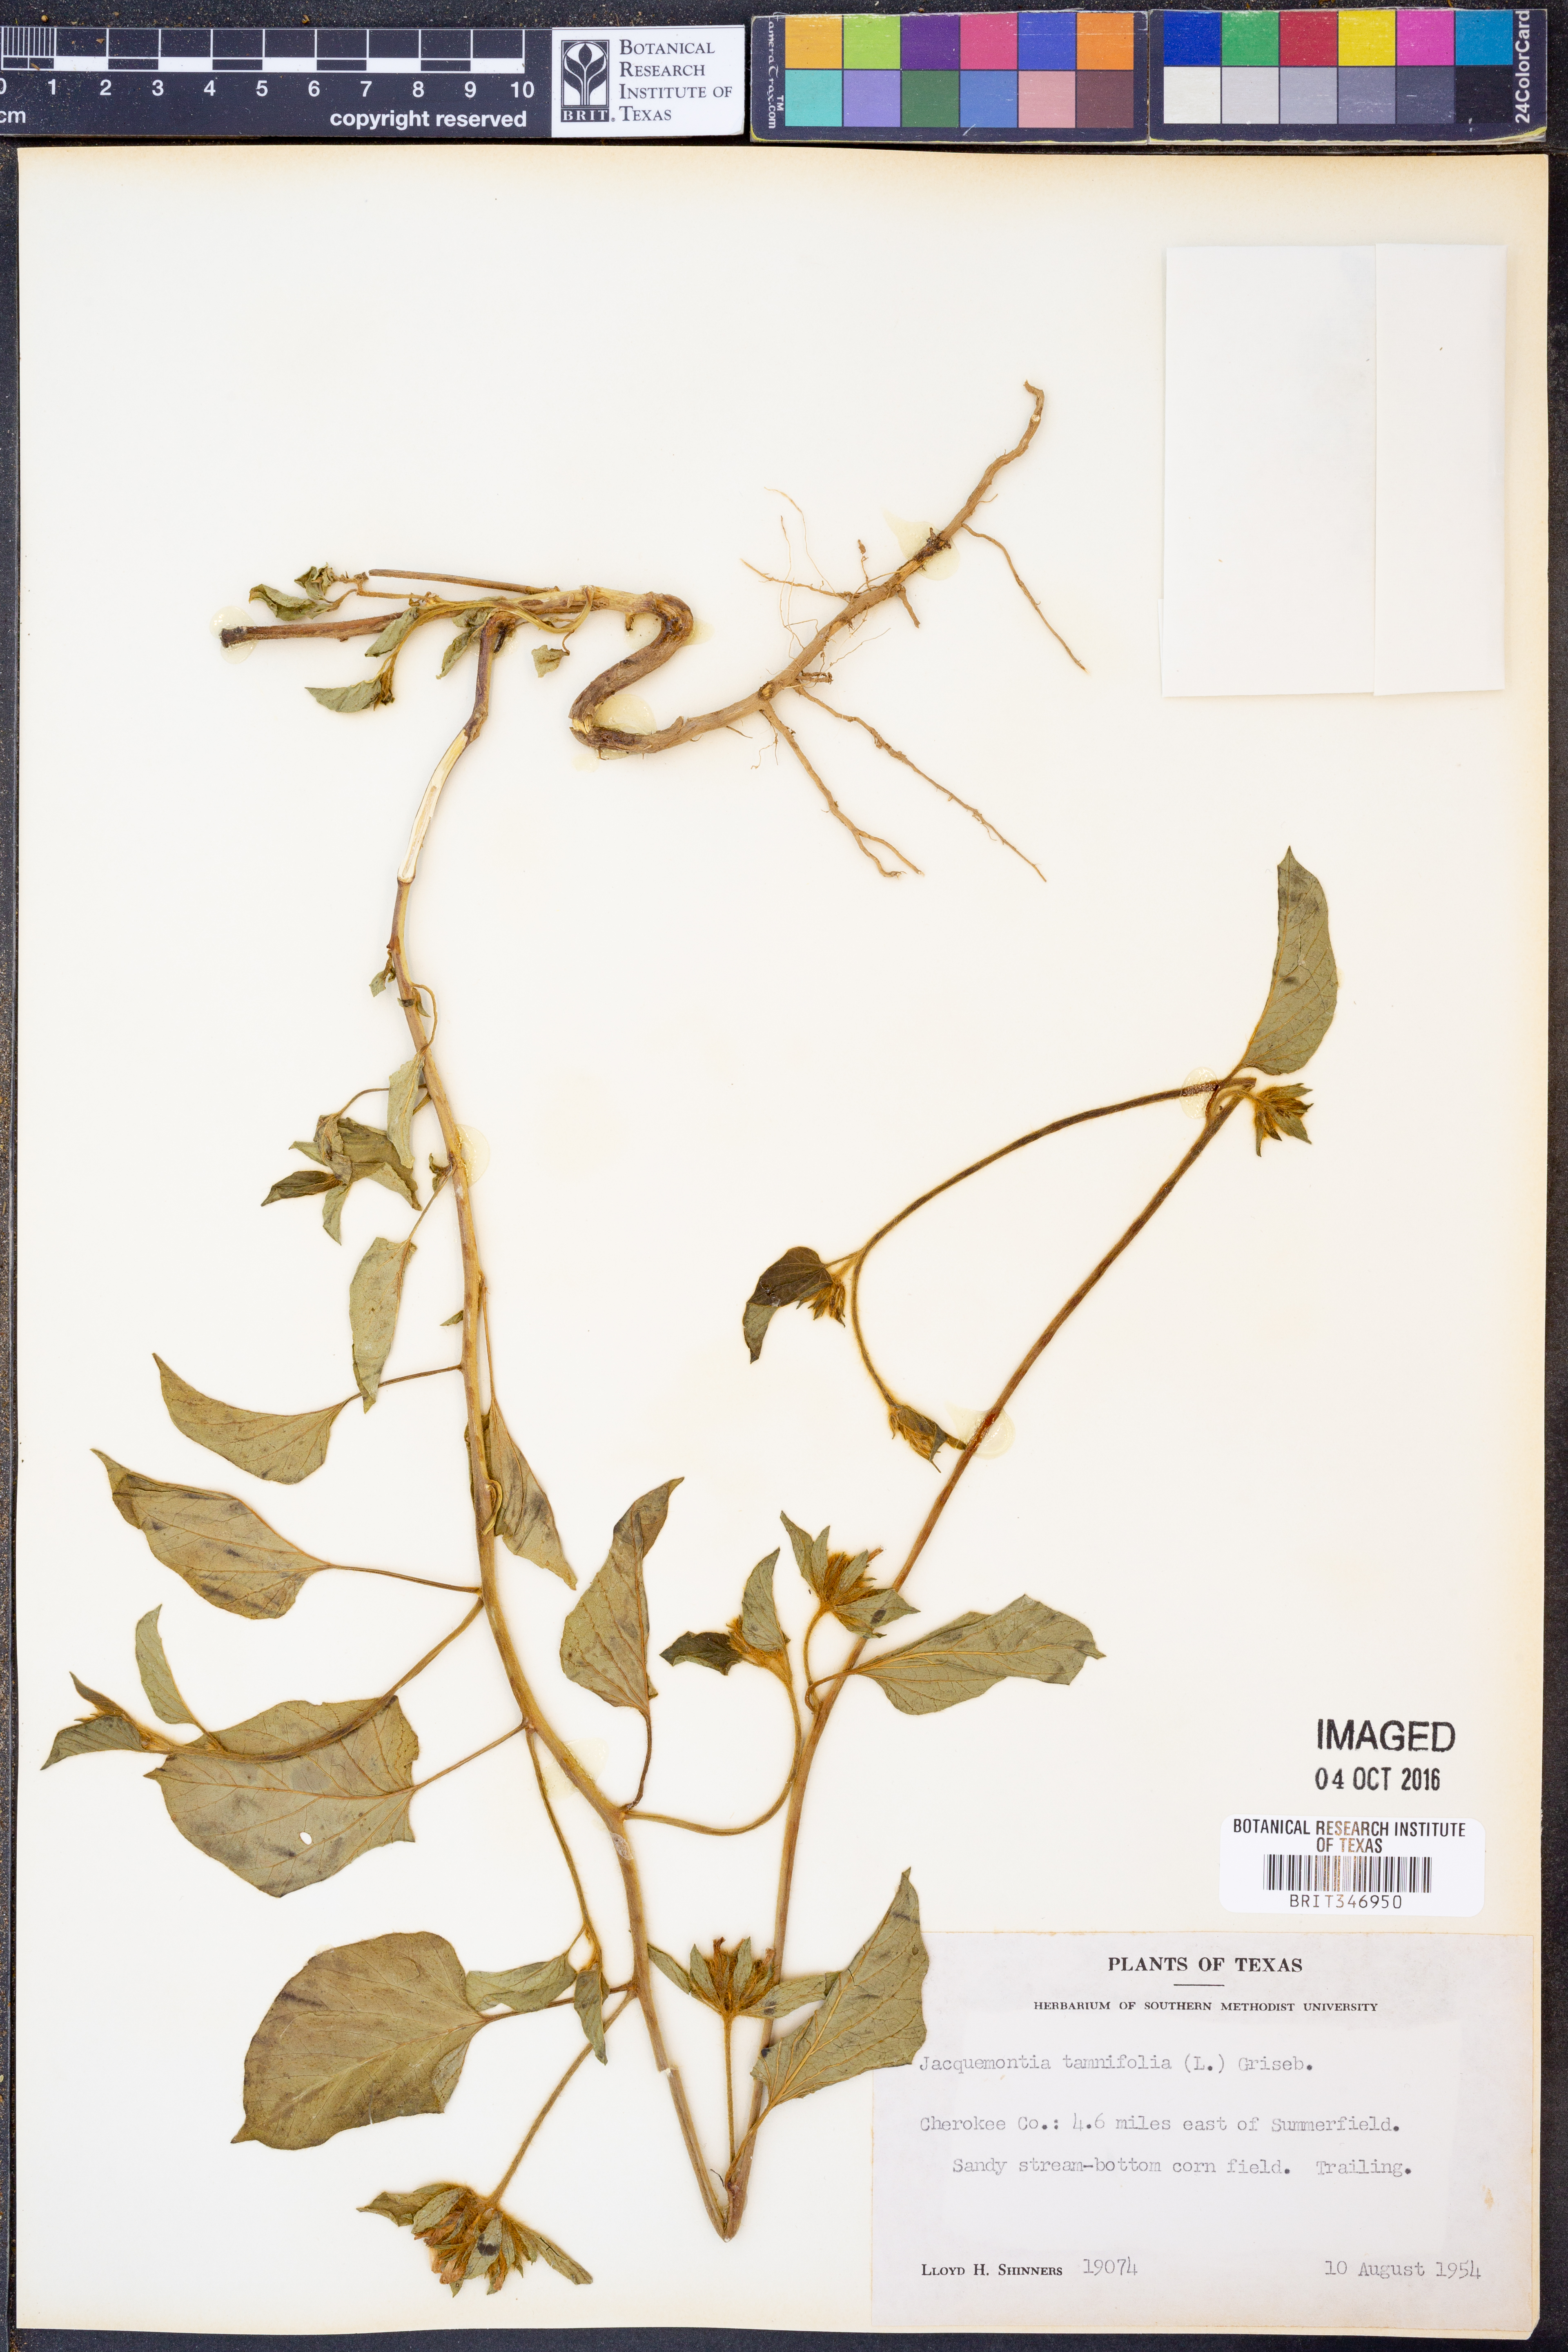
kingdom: Plantae
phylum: Tracheophyta
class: Magnoliopsida
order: Solanales
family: Convolvulaceae
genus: Jacquemontia
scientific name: Jacquemontia tamnifolia
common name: Hairy clustervine
